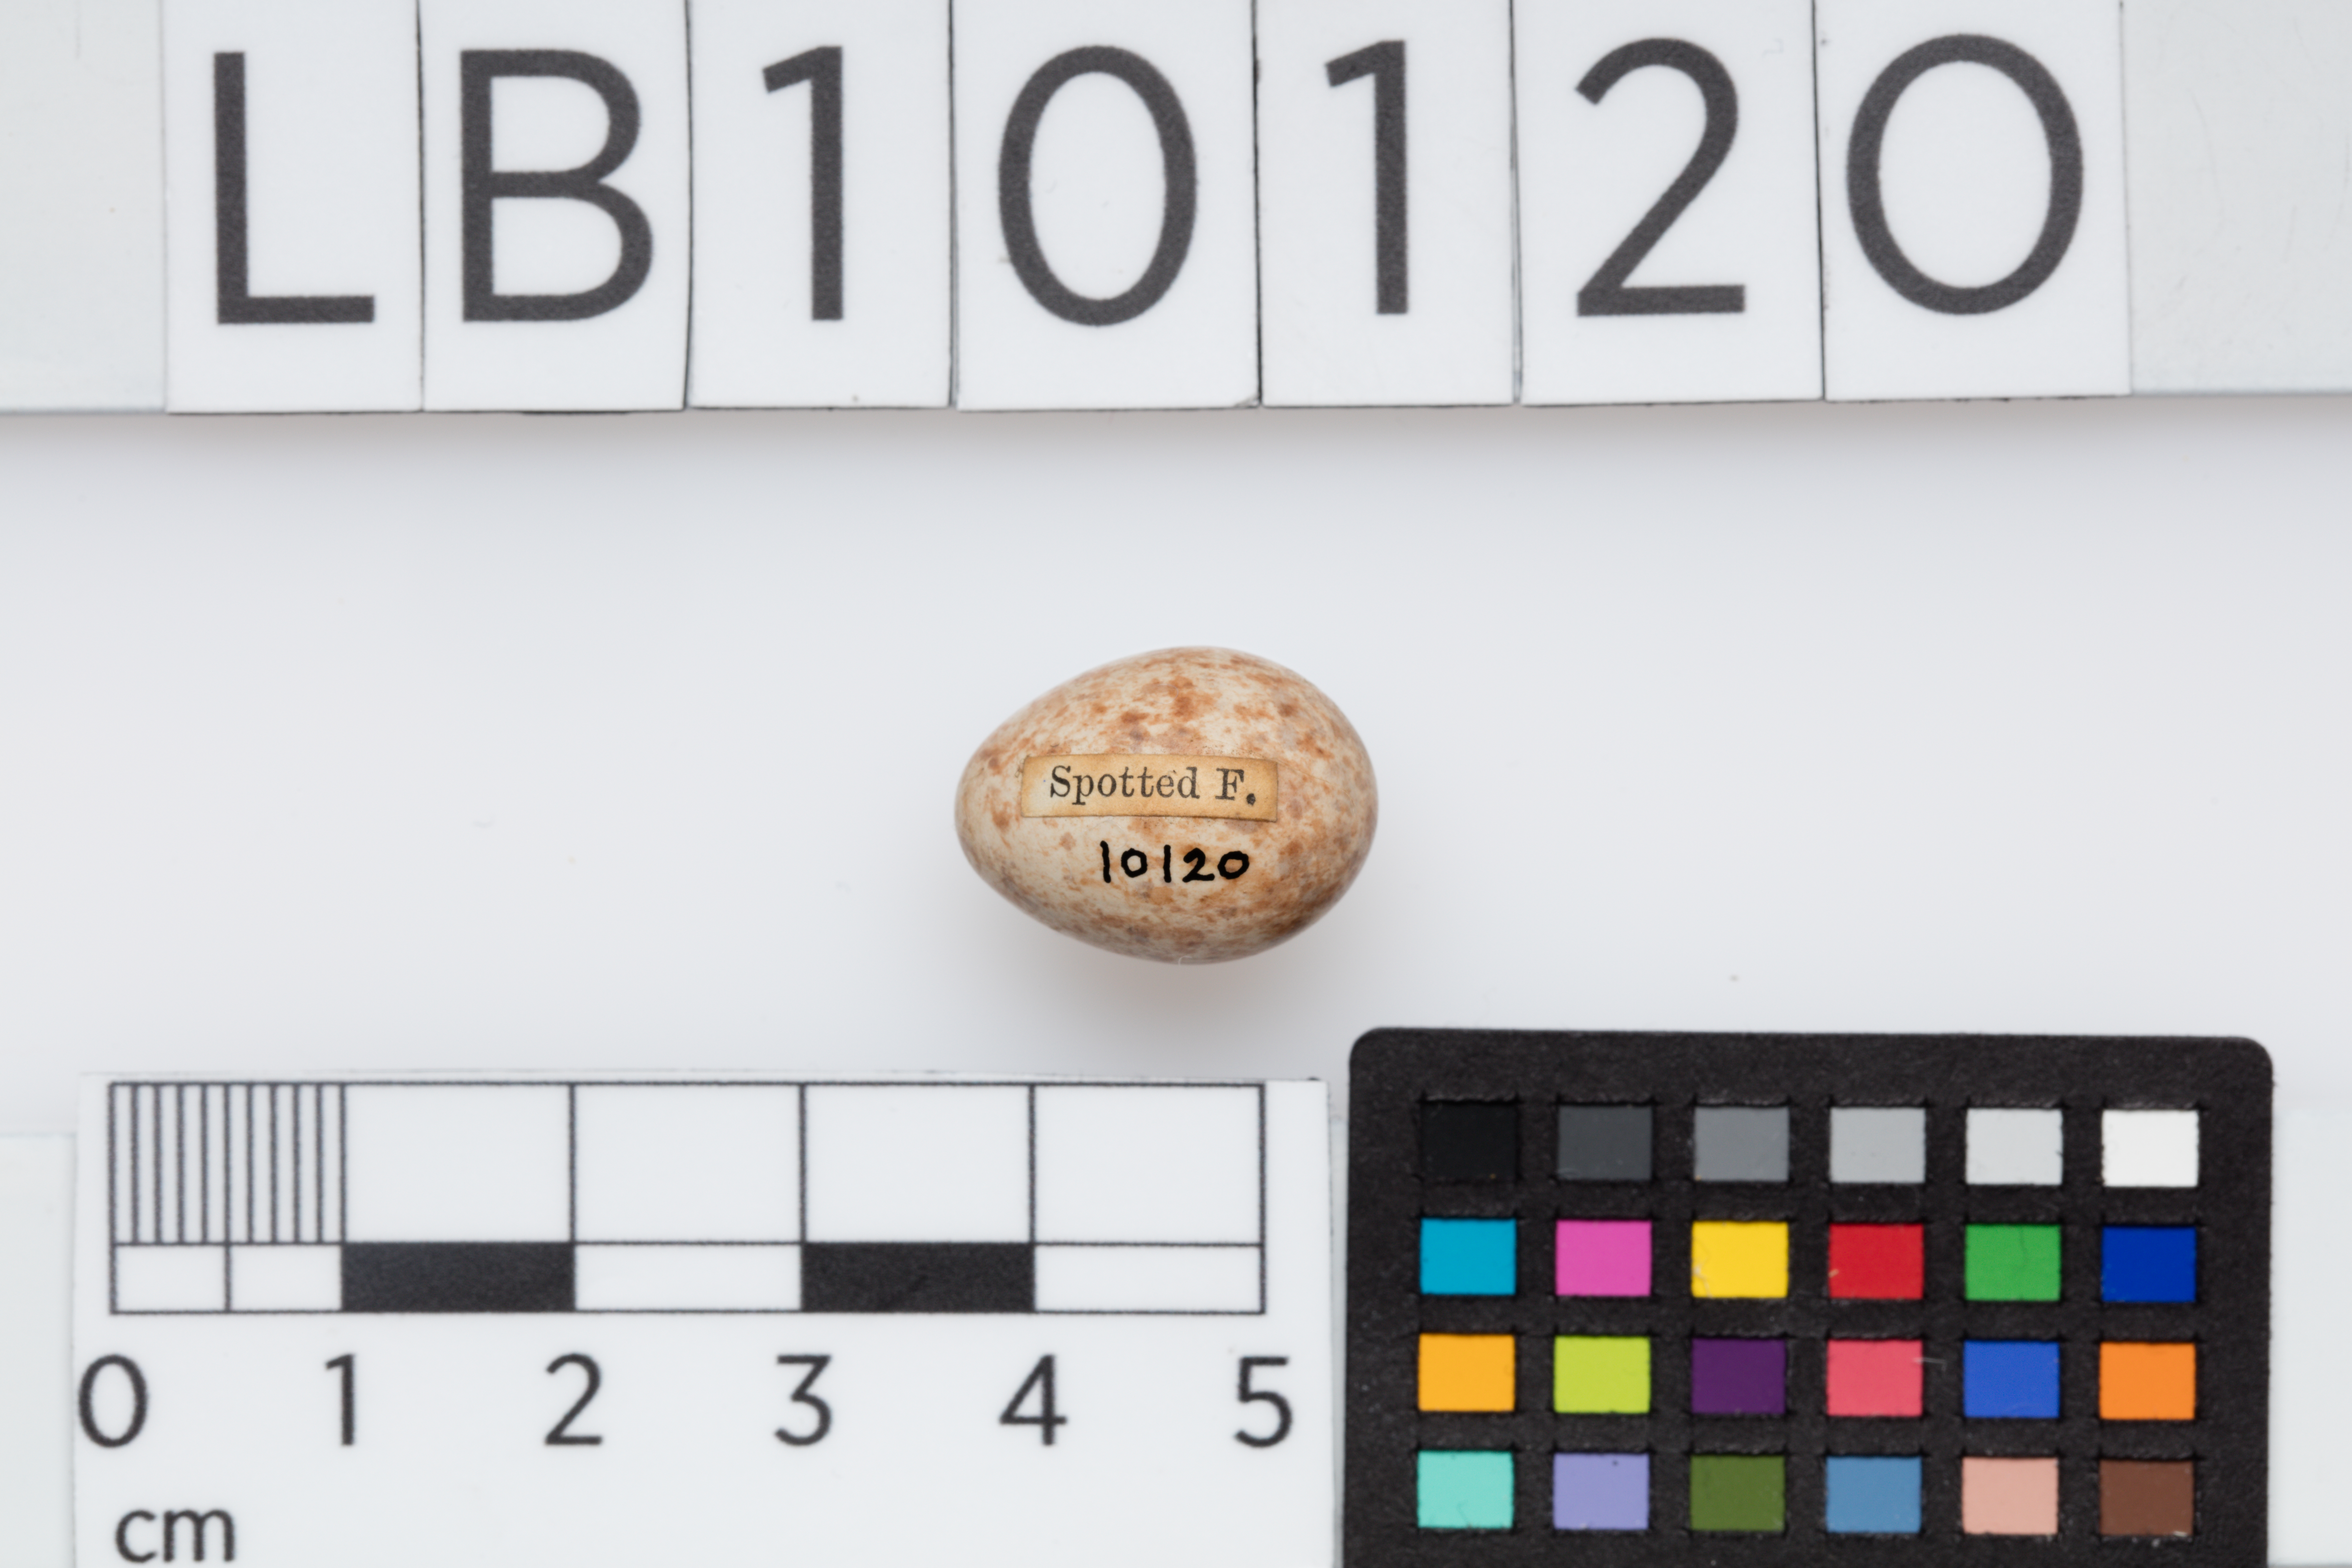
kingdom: Animalia
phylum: Chordata
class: Aves
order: Passeriformes
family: Muscicapidae
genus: Muscicapa
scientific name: Muscicapa striata
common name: Spotted flycatcher
